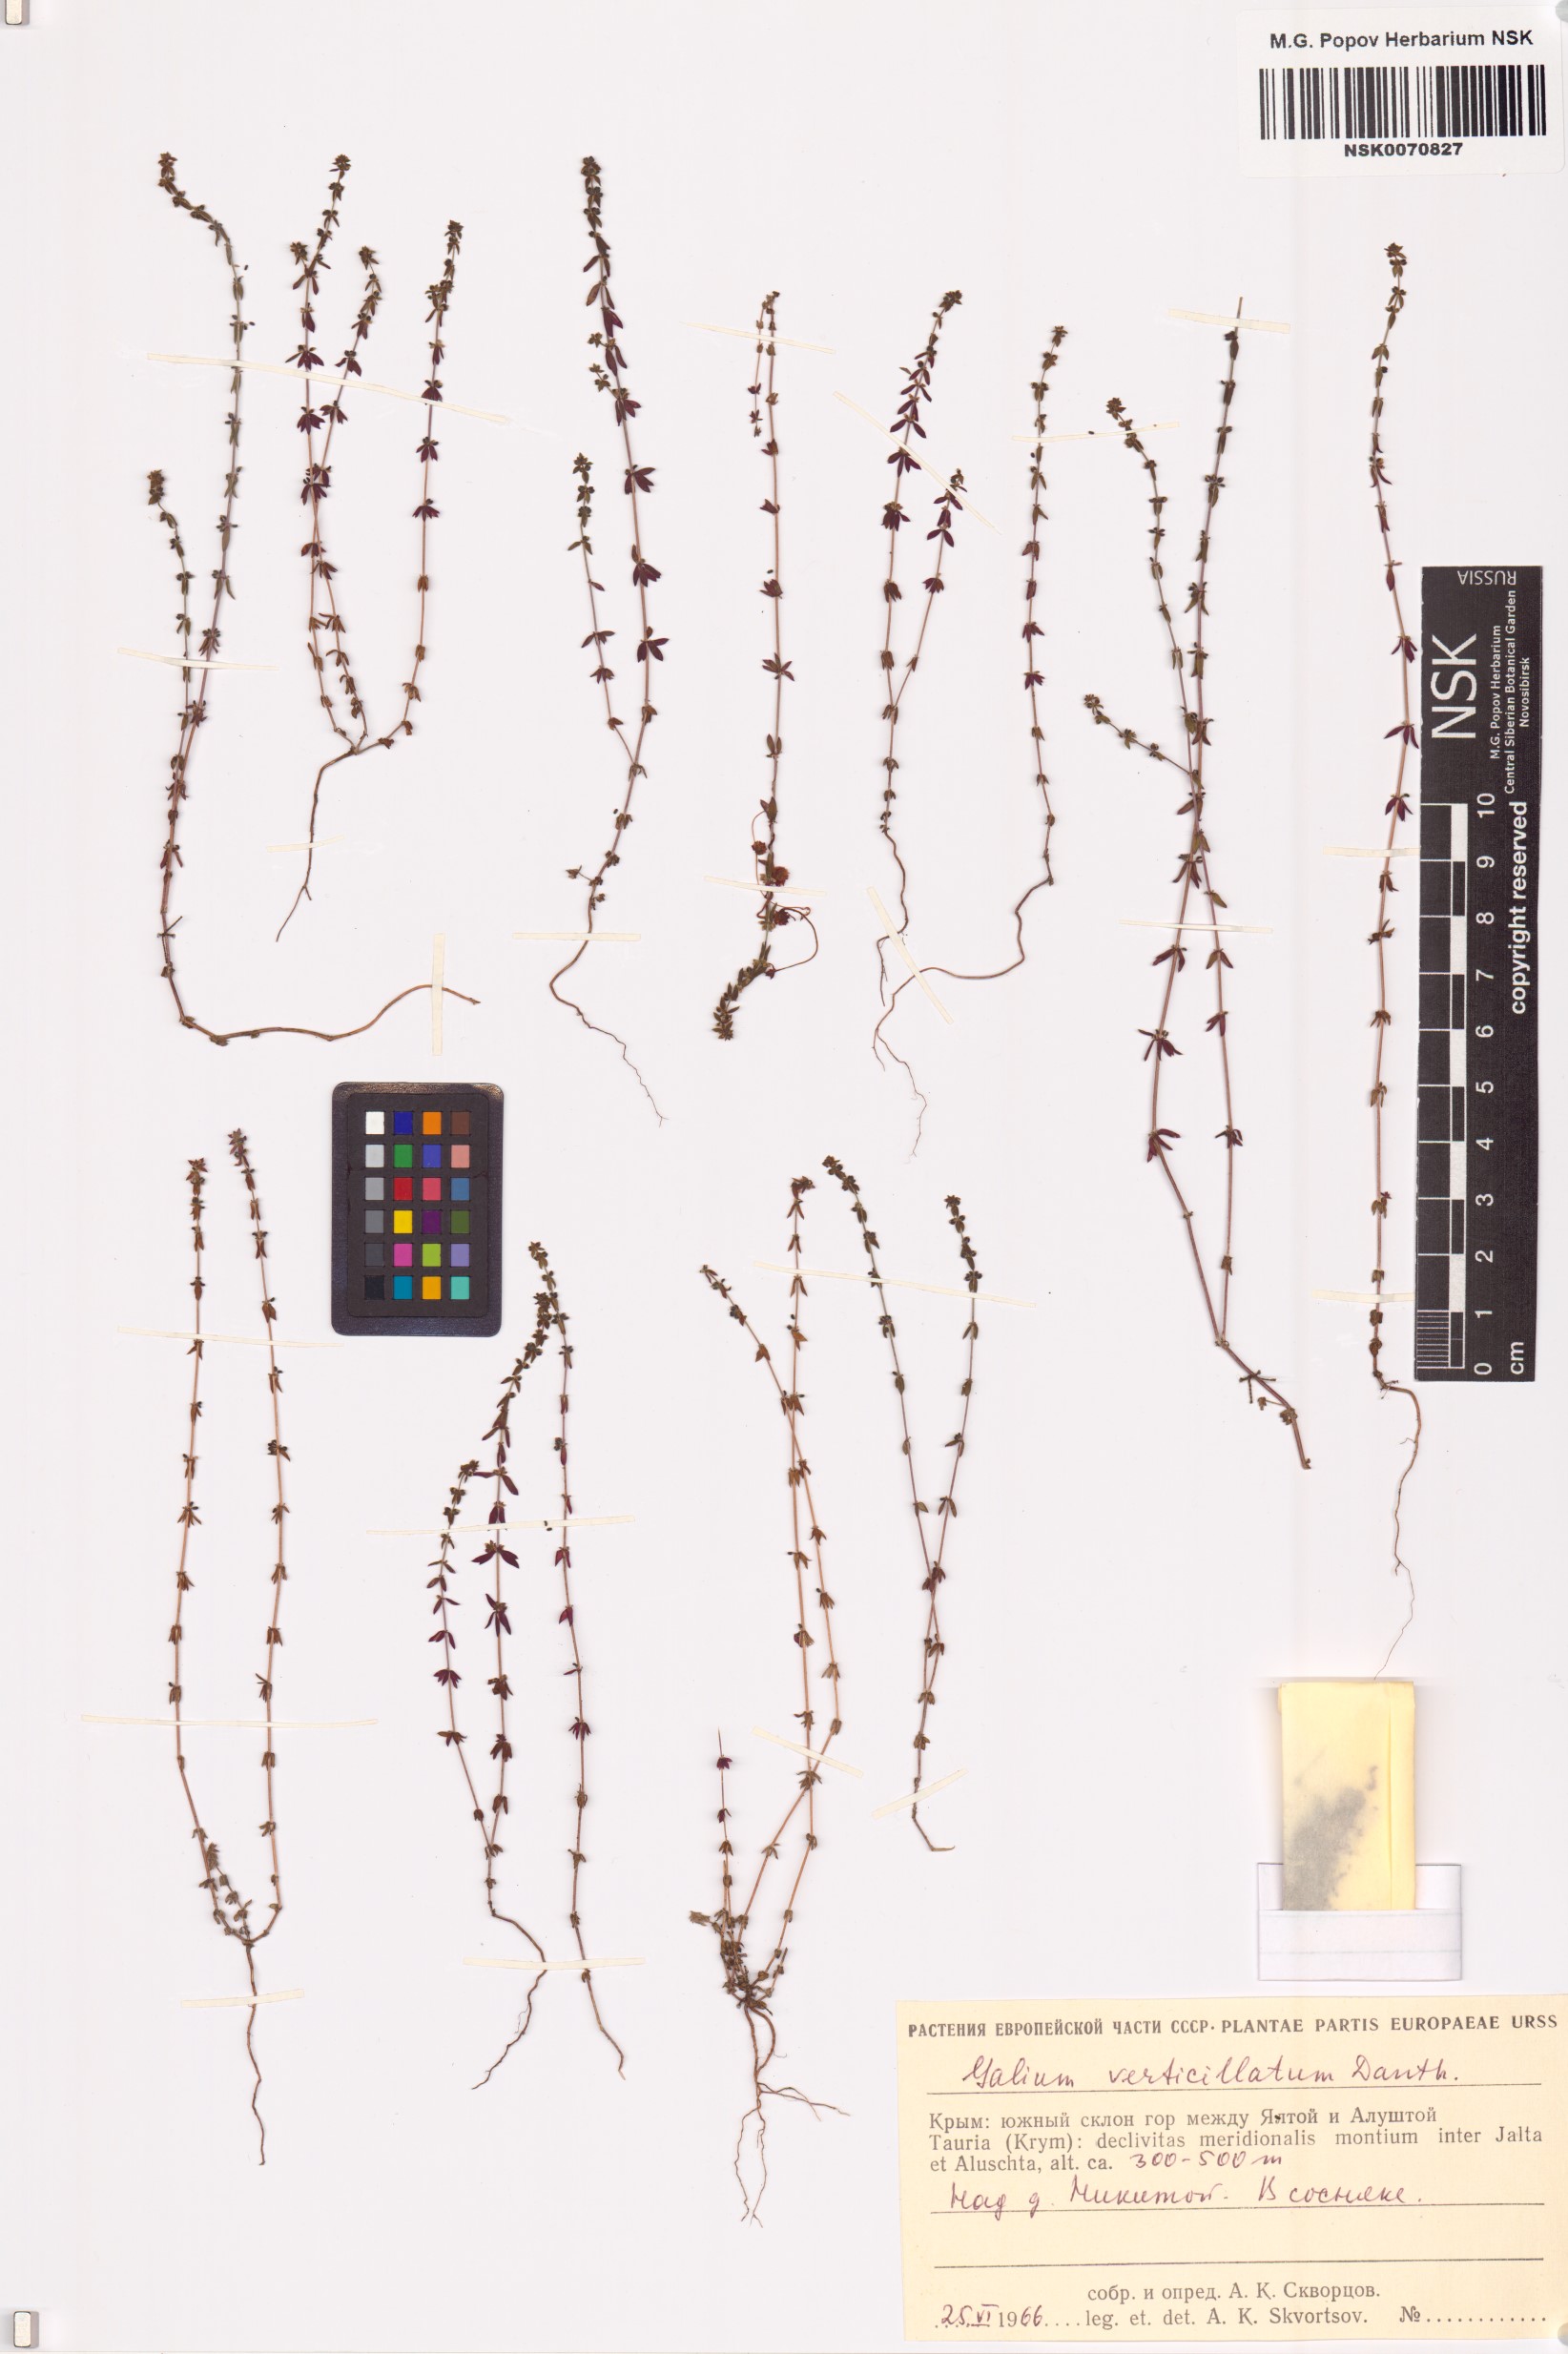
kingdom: Plantae
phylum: Tracheophyta
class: Magnoliopsida
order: Gentianales
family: Rubiaceae
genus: Galium
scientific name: Galium verticillatum
